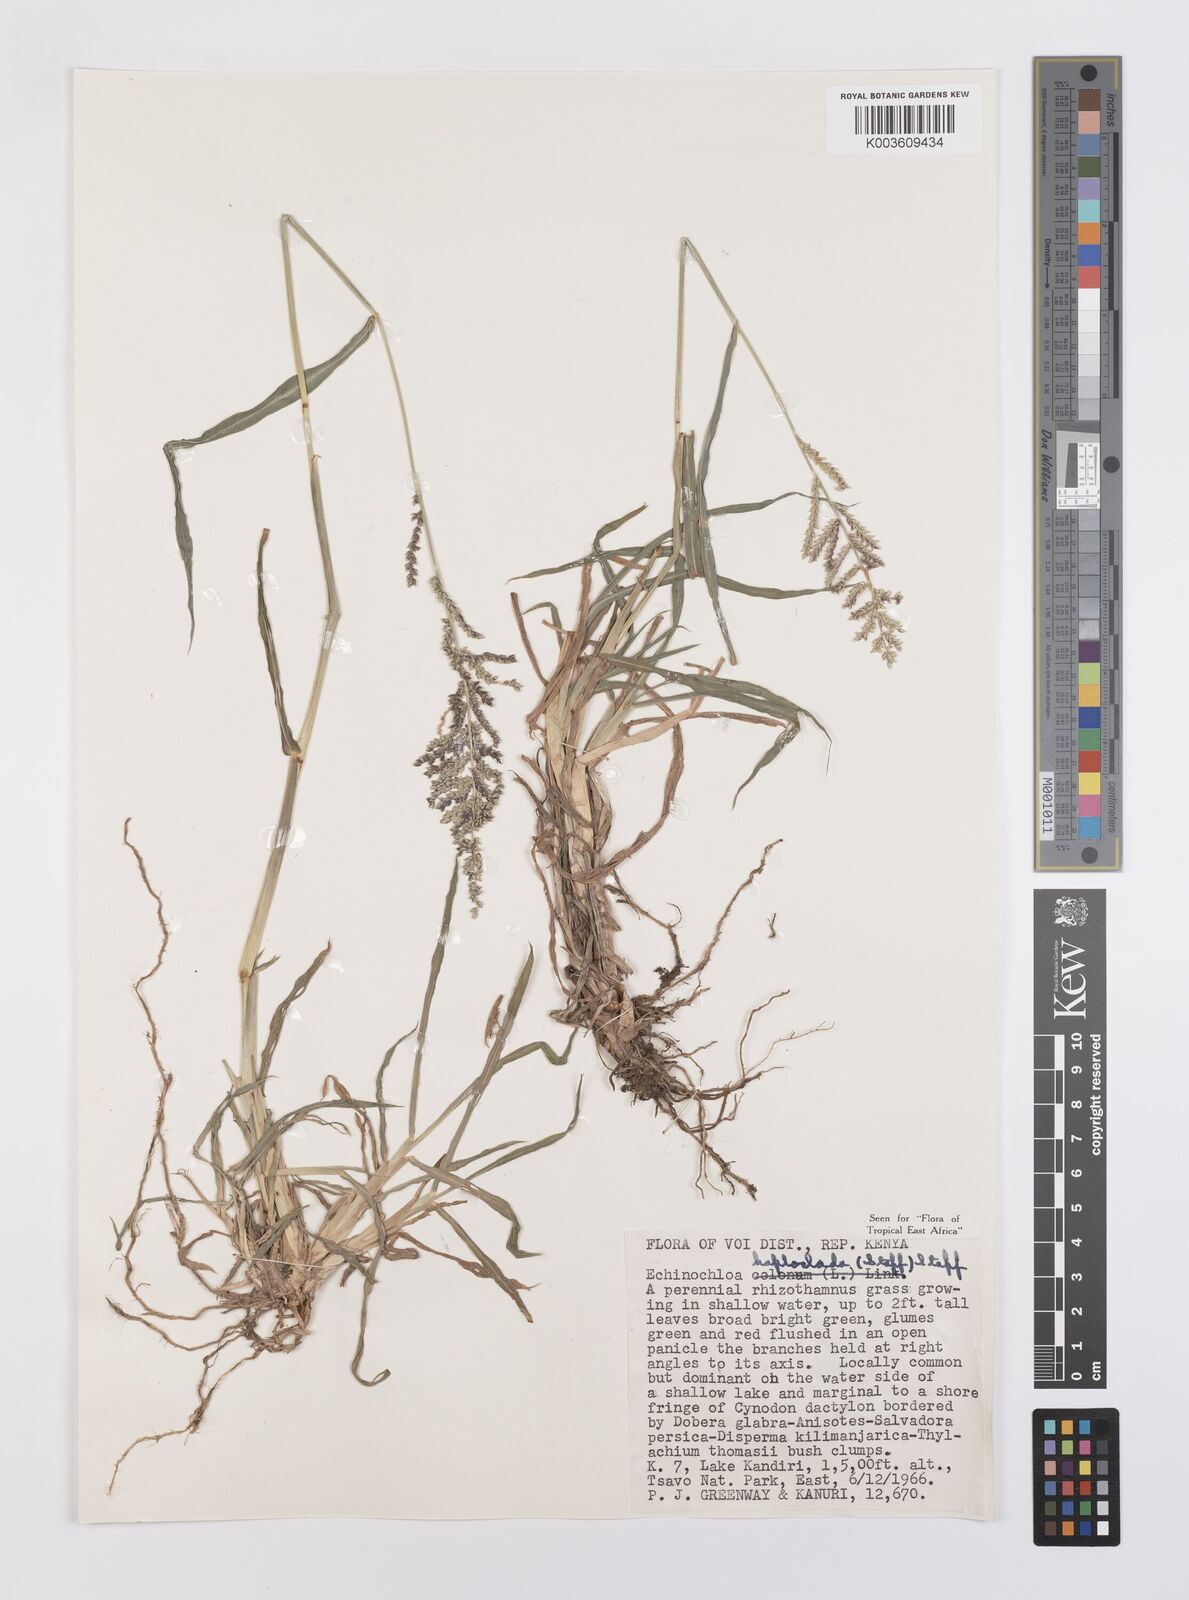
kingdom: Plantae
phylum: Tracheophyta
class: Liliopsida
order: Poales
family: Poaceae
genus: Echinochloa
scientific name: Echinochloa haploclada
